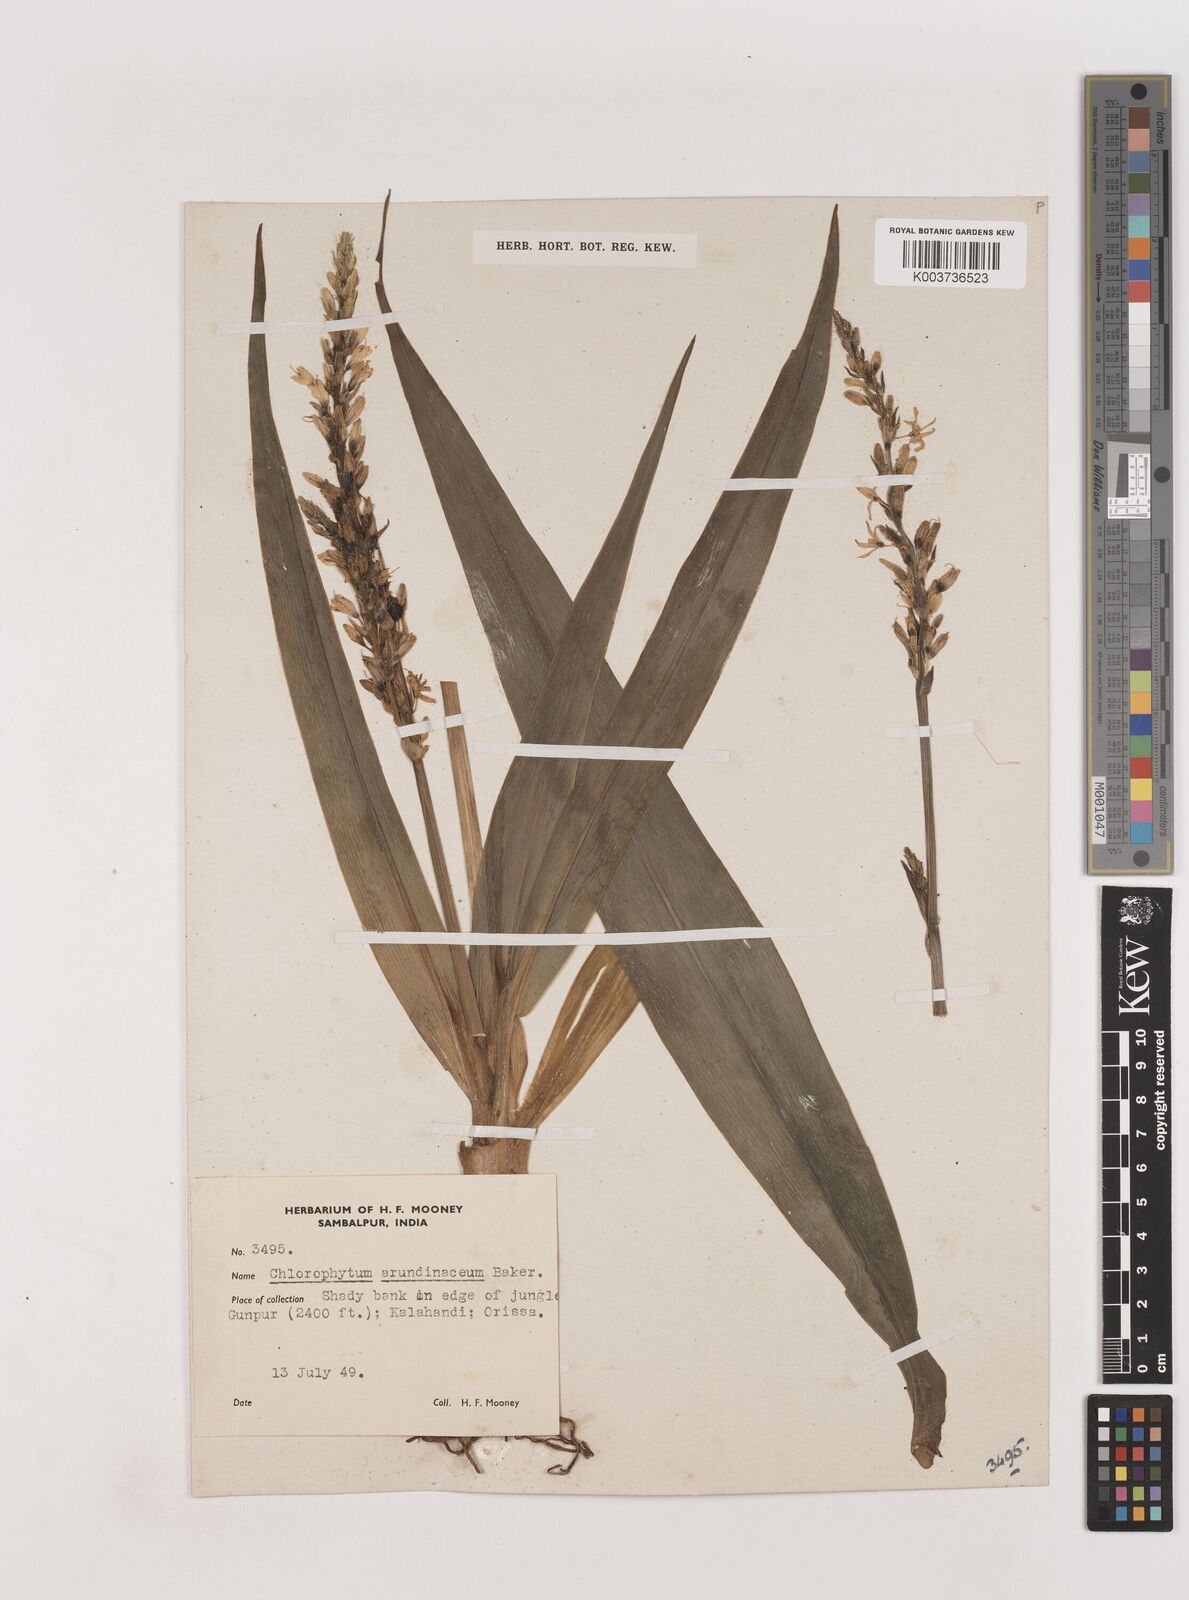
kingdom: Plantae
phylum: Tracheophyta
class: Liliopsida
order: Asparagales
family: Asparagaceae
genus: Chlorophytum
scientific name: Chlorophytum arundinaceum
